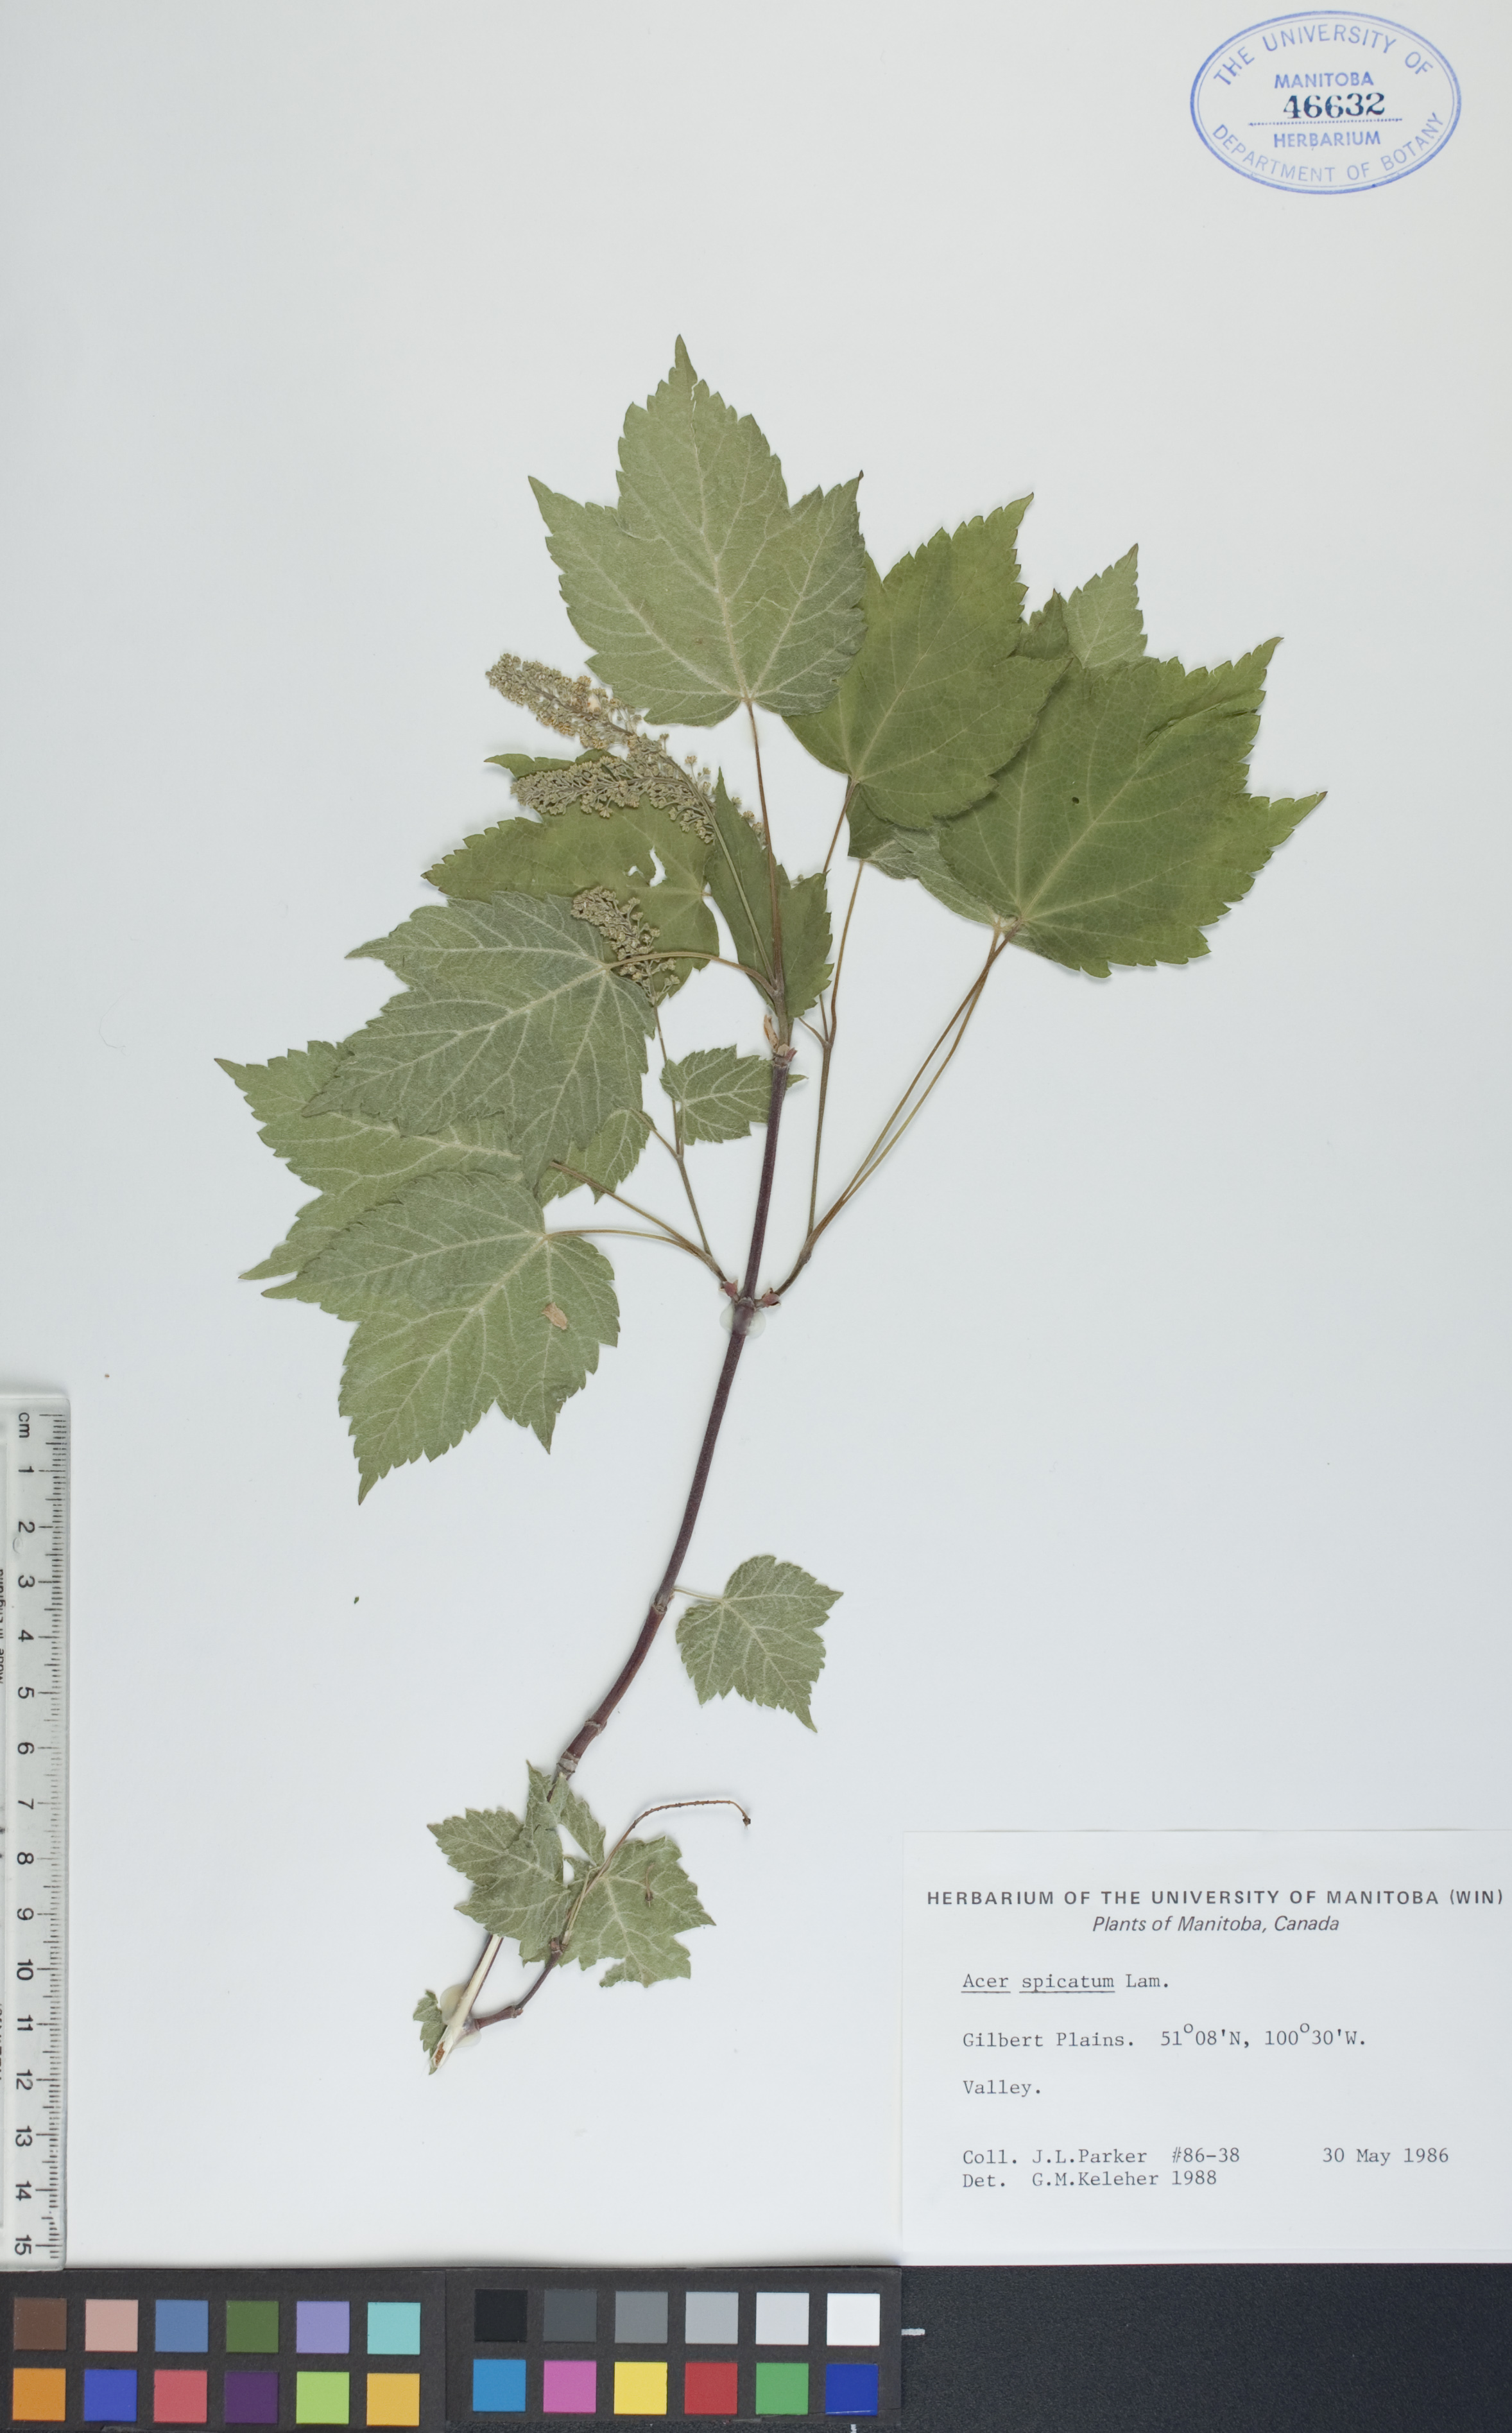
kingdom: Plantae
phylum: Tracheophyta
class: Magnoliopsida
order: Sapindales
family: Sapindaceae
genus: Acer
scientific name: Acer spicatum
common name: Mountain maple
